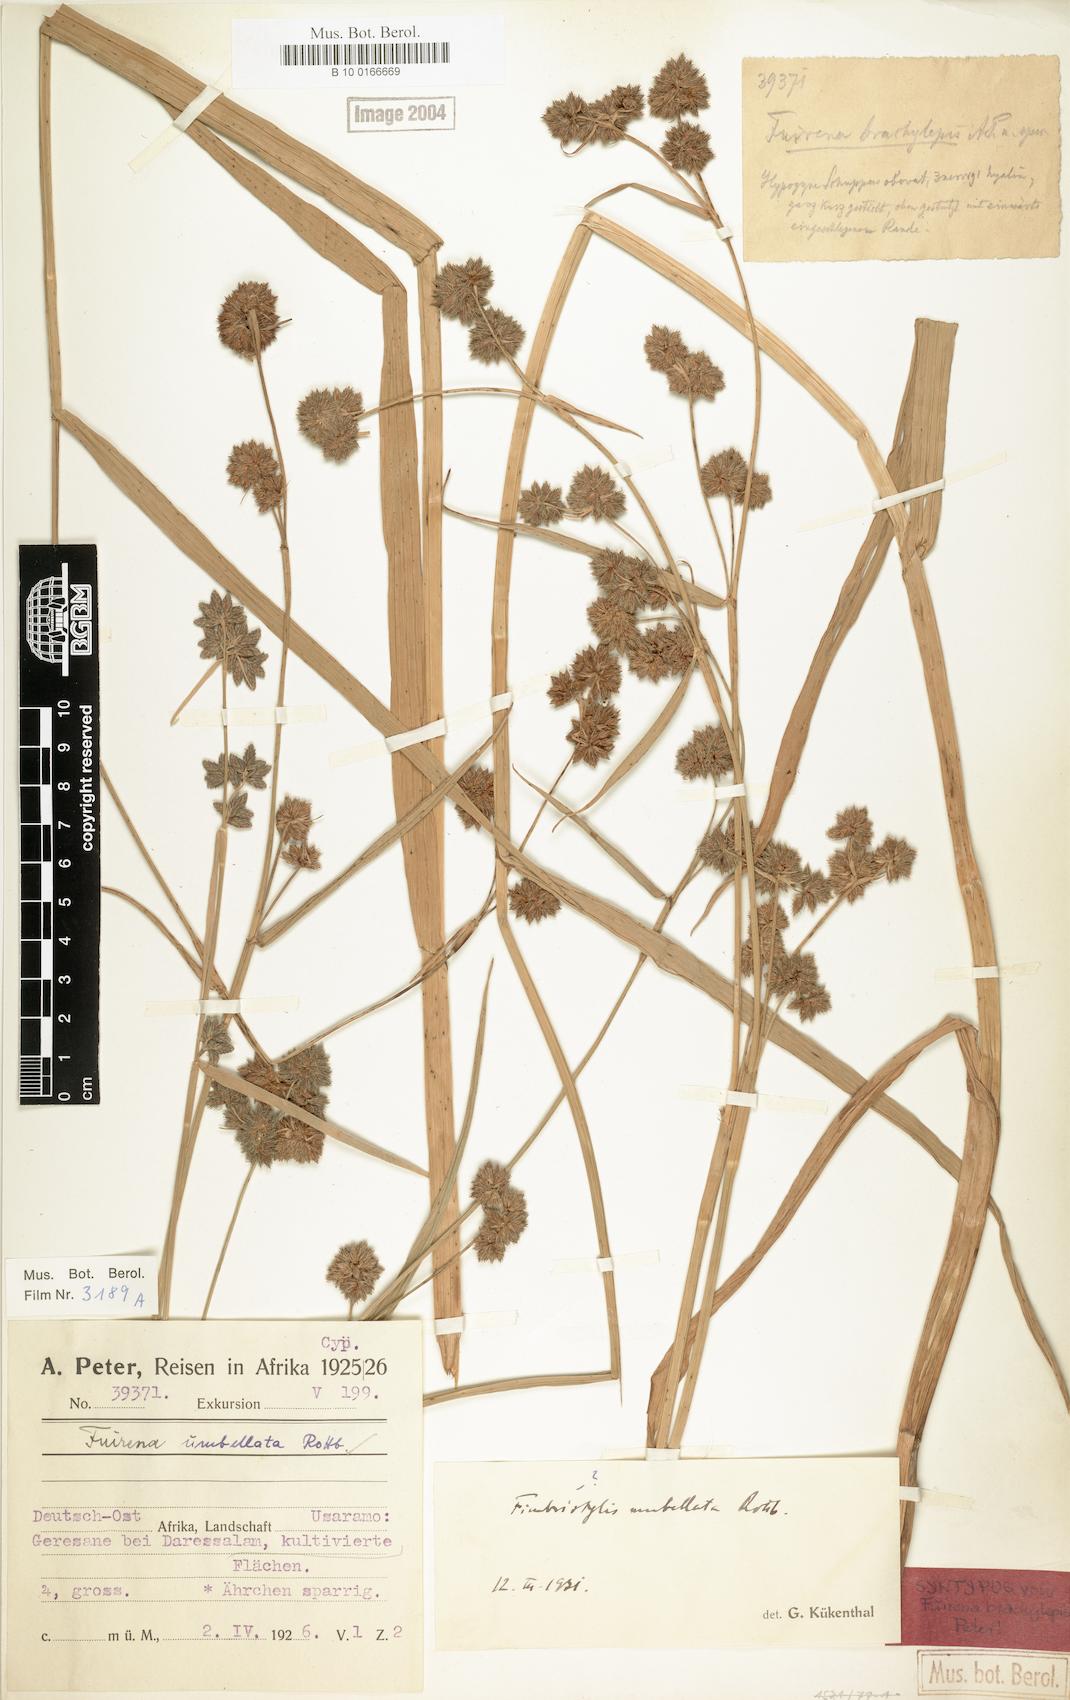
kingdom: Plantae
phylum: Tracheophyta
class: Liliopsida
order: Poales
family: Cyperaceae
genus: Fuirena
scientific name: Fuirena umbellata
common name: Yefen
